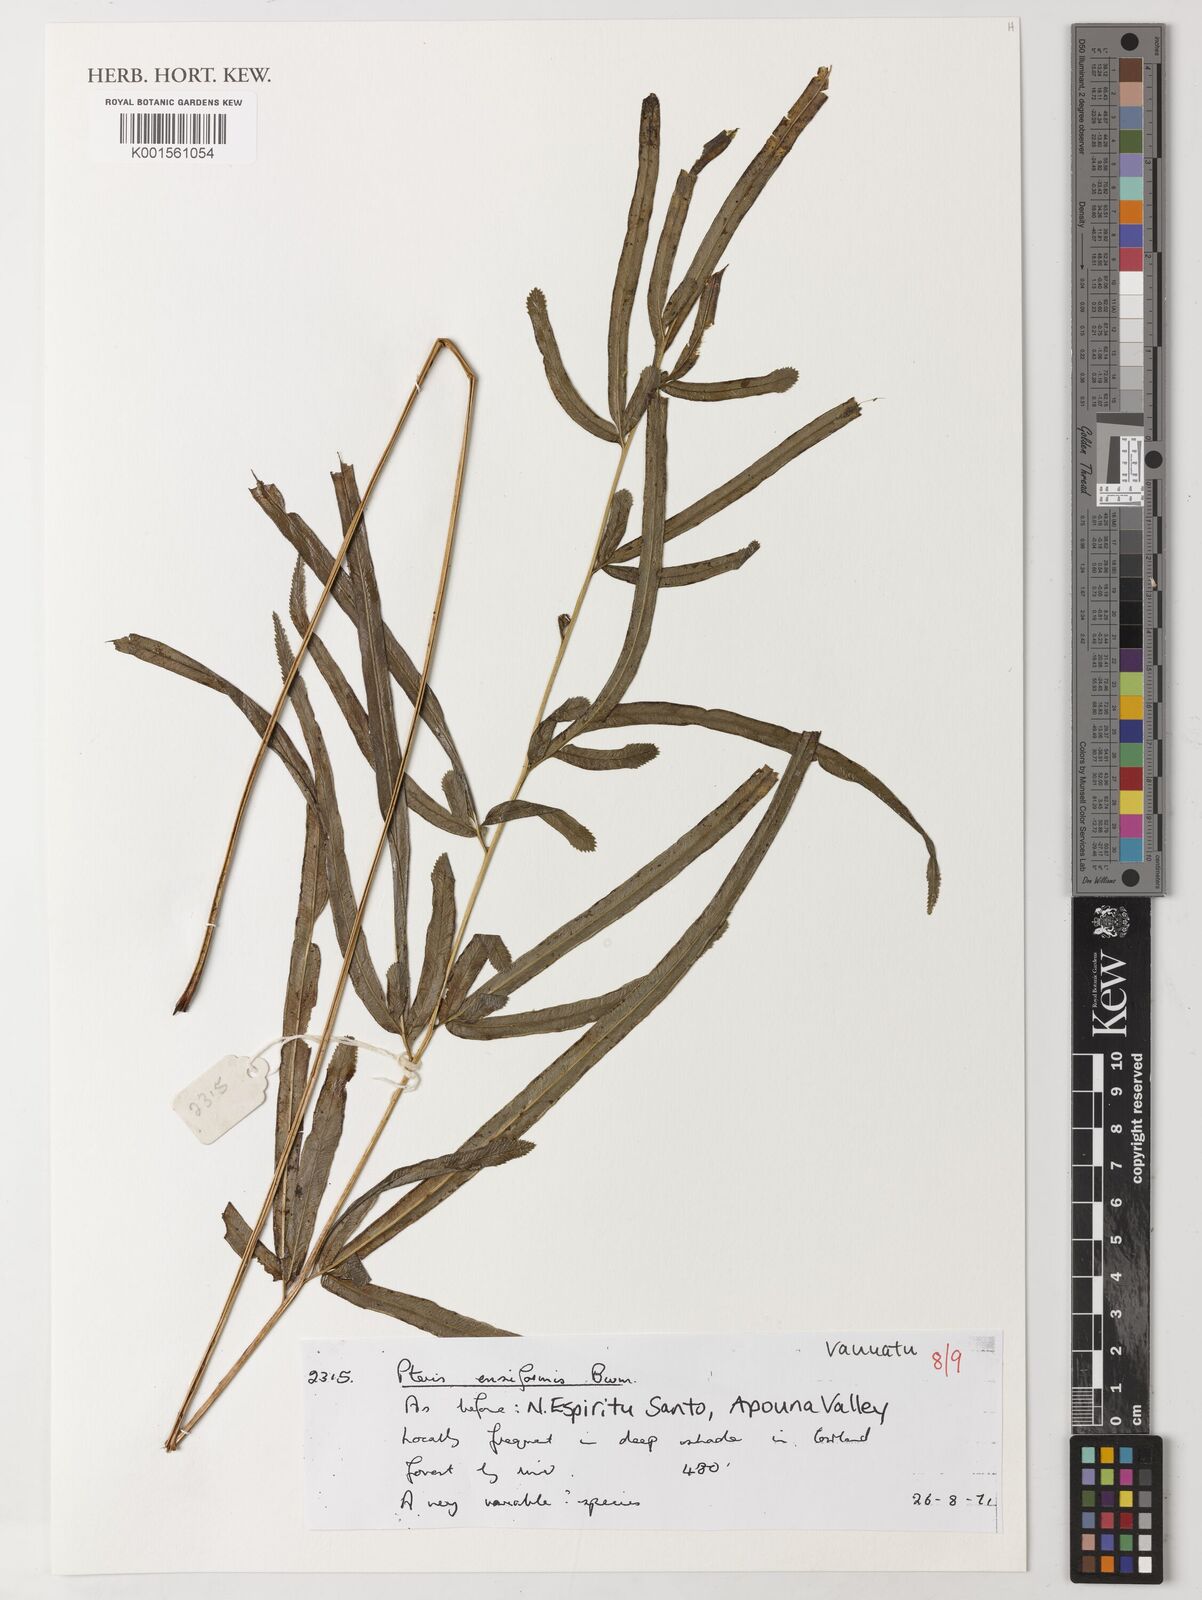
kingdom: Plantae
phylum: Tracheophyta
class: Polypodiopsida
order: Polypodiales
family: Pteridaceae
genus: Pteris
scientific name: Pteris ensiformis
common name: Sword brake
